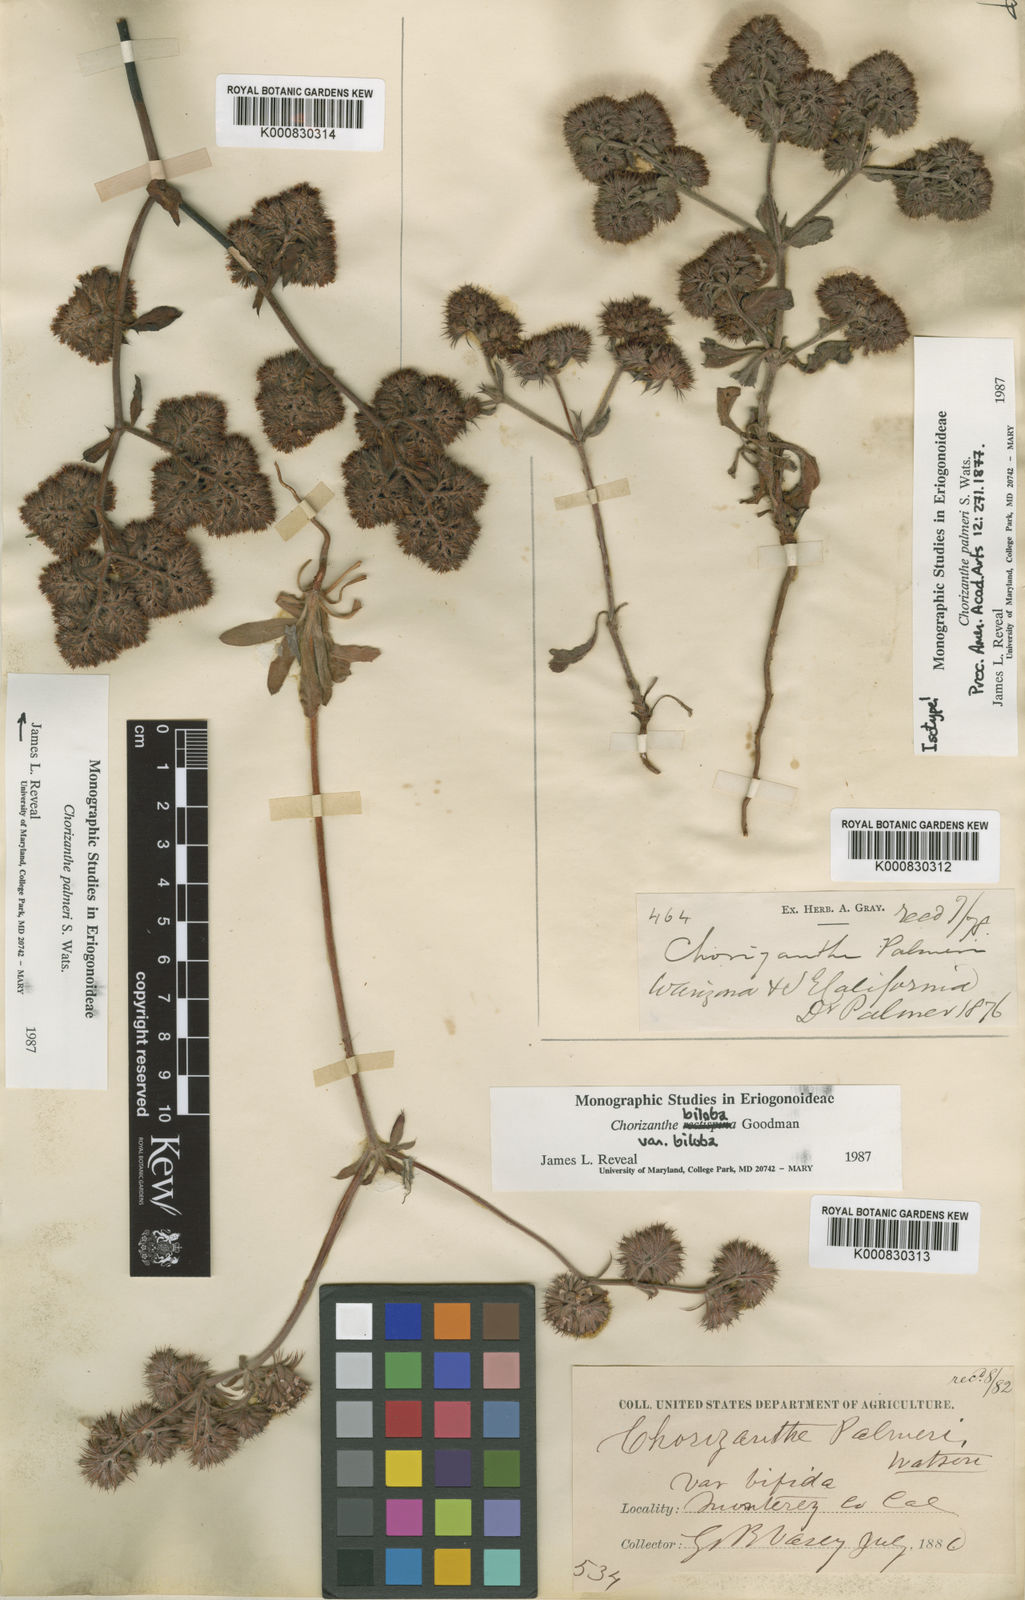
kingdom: Plantae
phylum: Tracheophyta
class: Magnoliopsida
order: Caryophyllales
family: Polygonaceae
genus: Chorizanthe
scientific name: Chorizanthe palmeri
